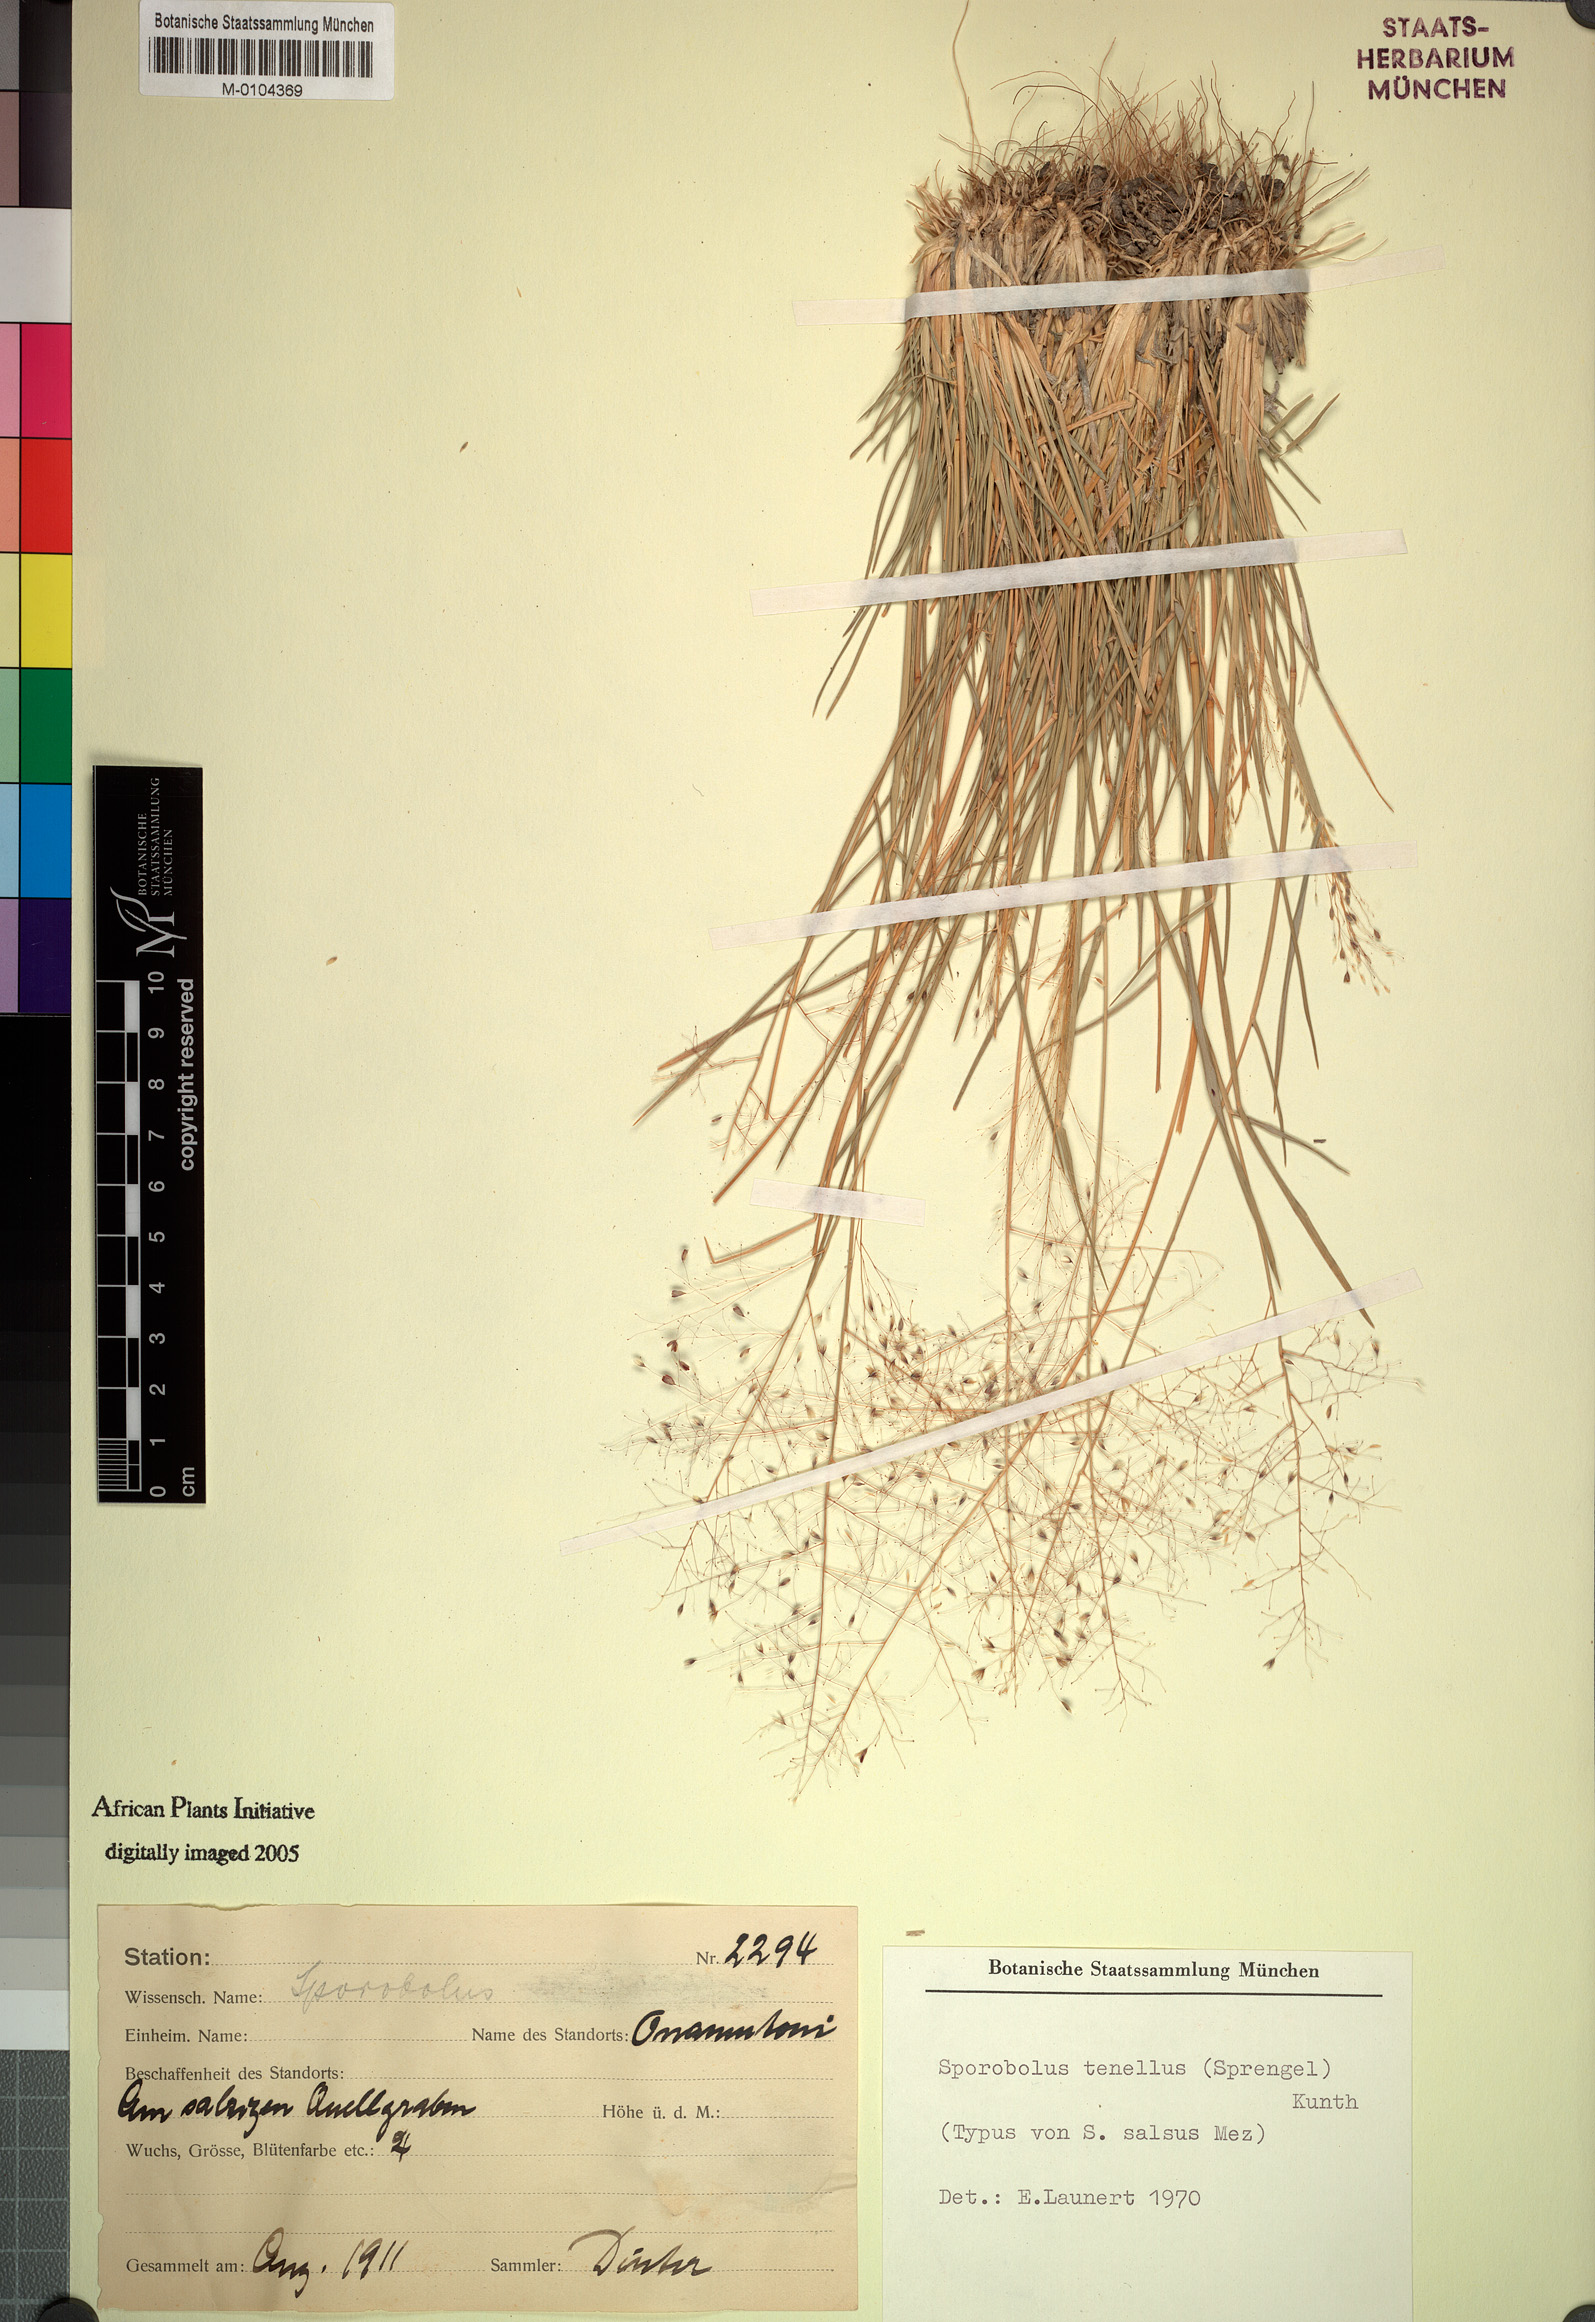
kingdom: Plantae
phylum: Tracheophyta
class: Liliopsida
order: Poales
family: Poaceae
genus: Sporobolus
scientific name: Sporobolus tenellus
